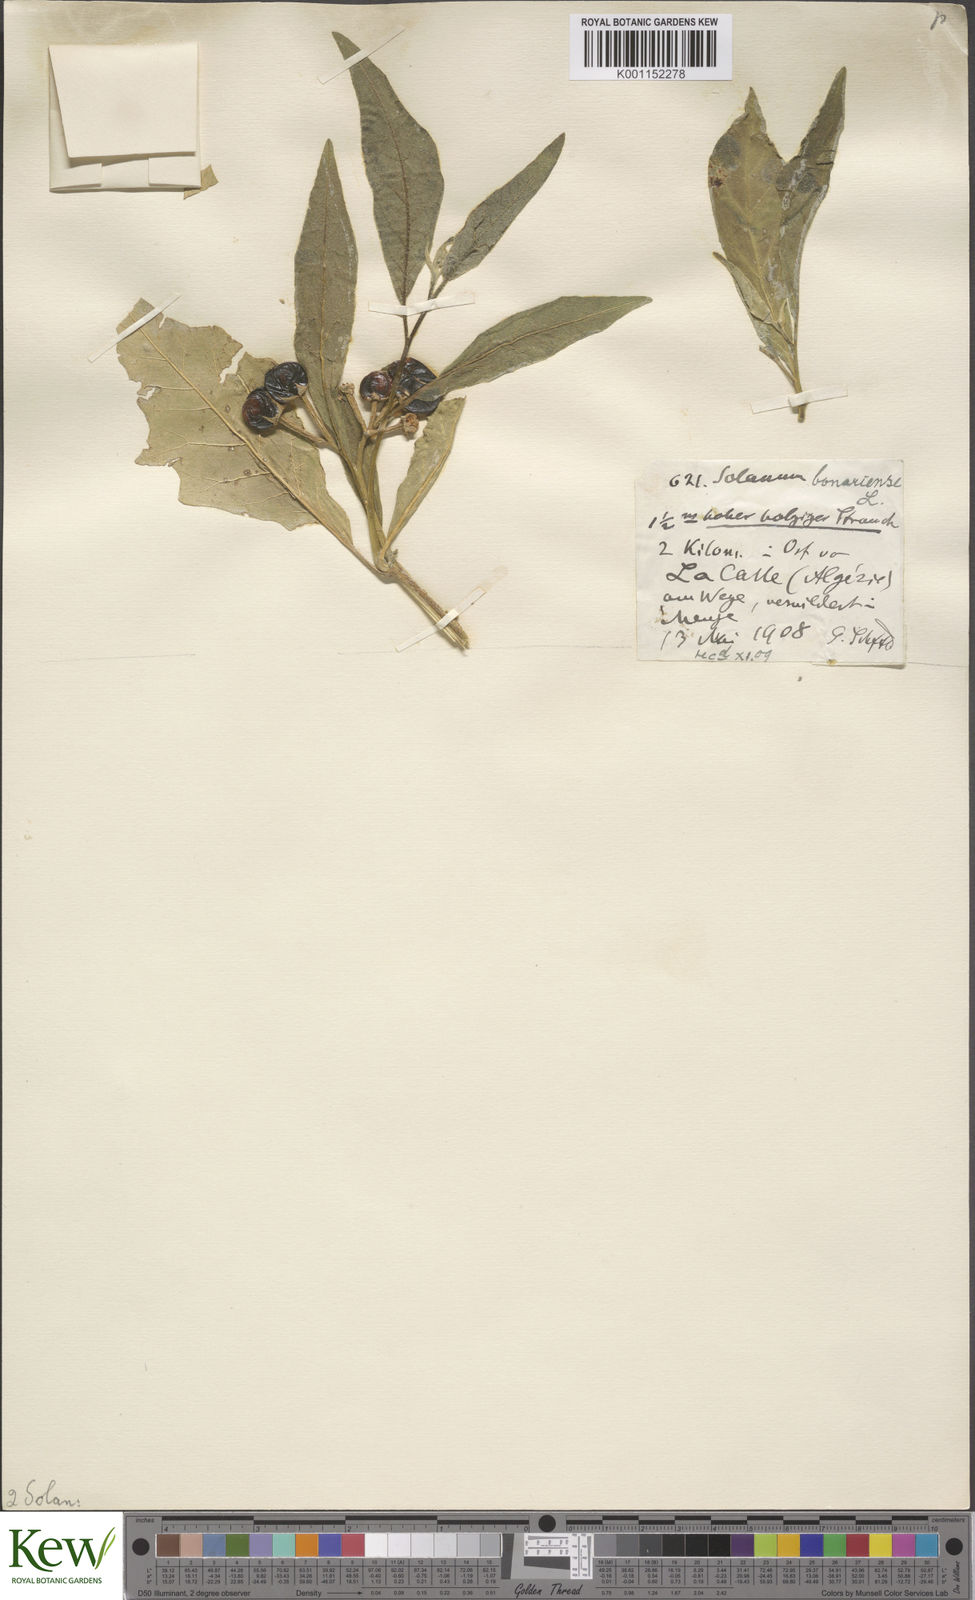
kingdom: Plantae
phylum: Tracheophyta
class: Magnoliopsida
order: Solanales
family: Solanaceae
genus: Solanum
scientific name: Solanum bonariense
